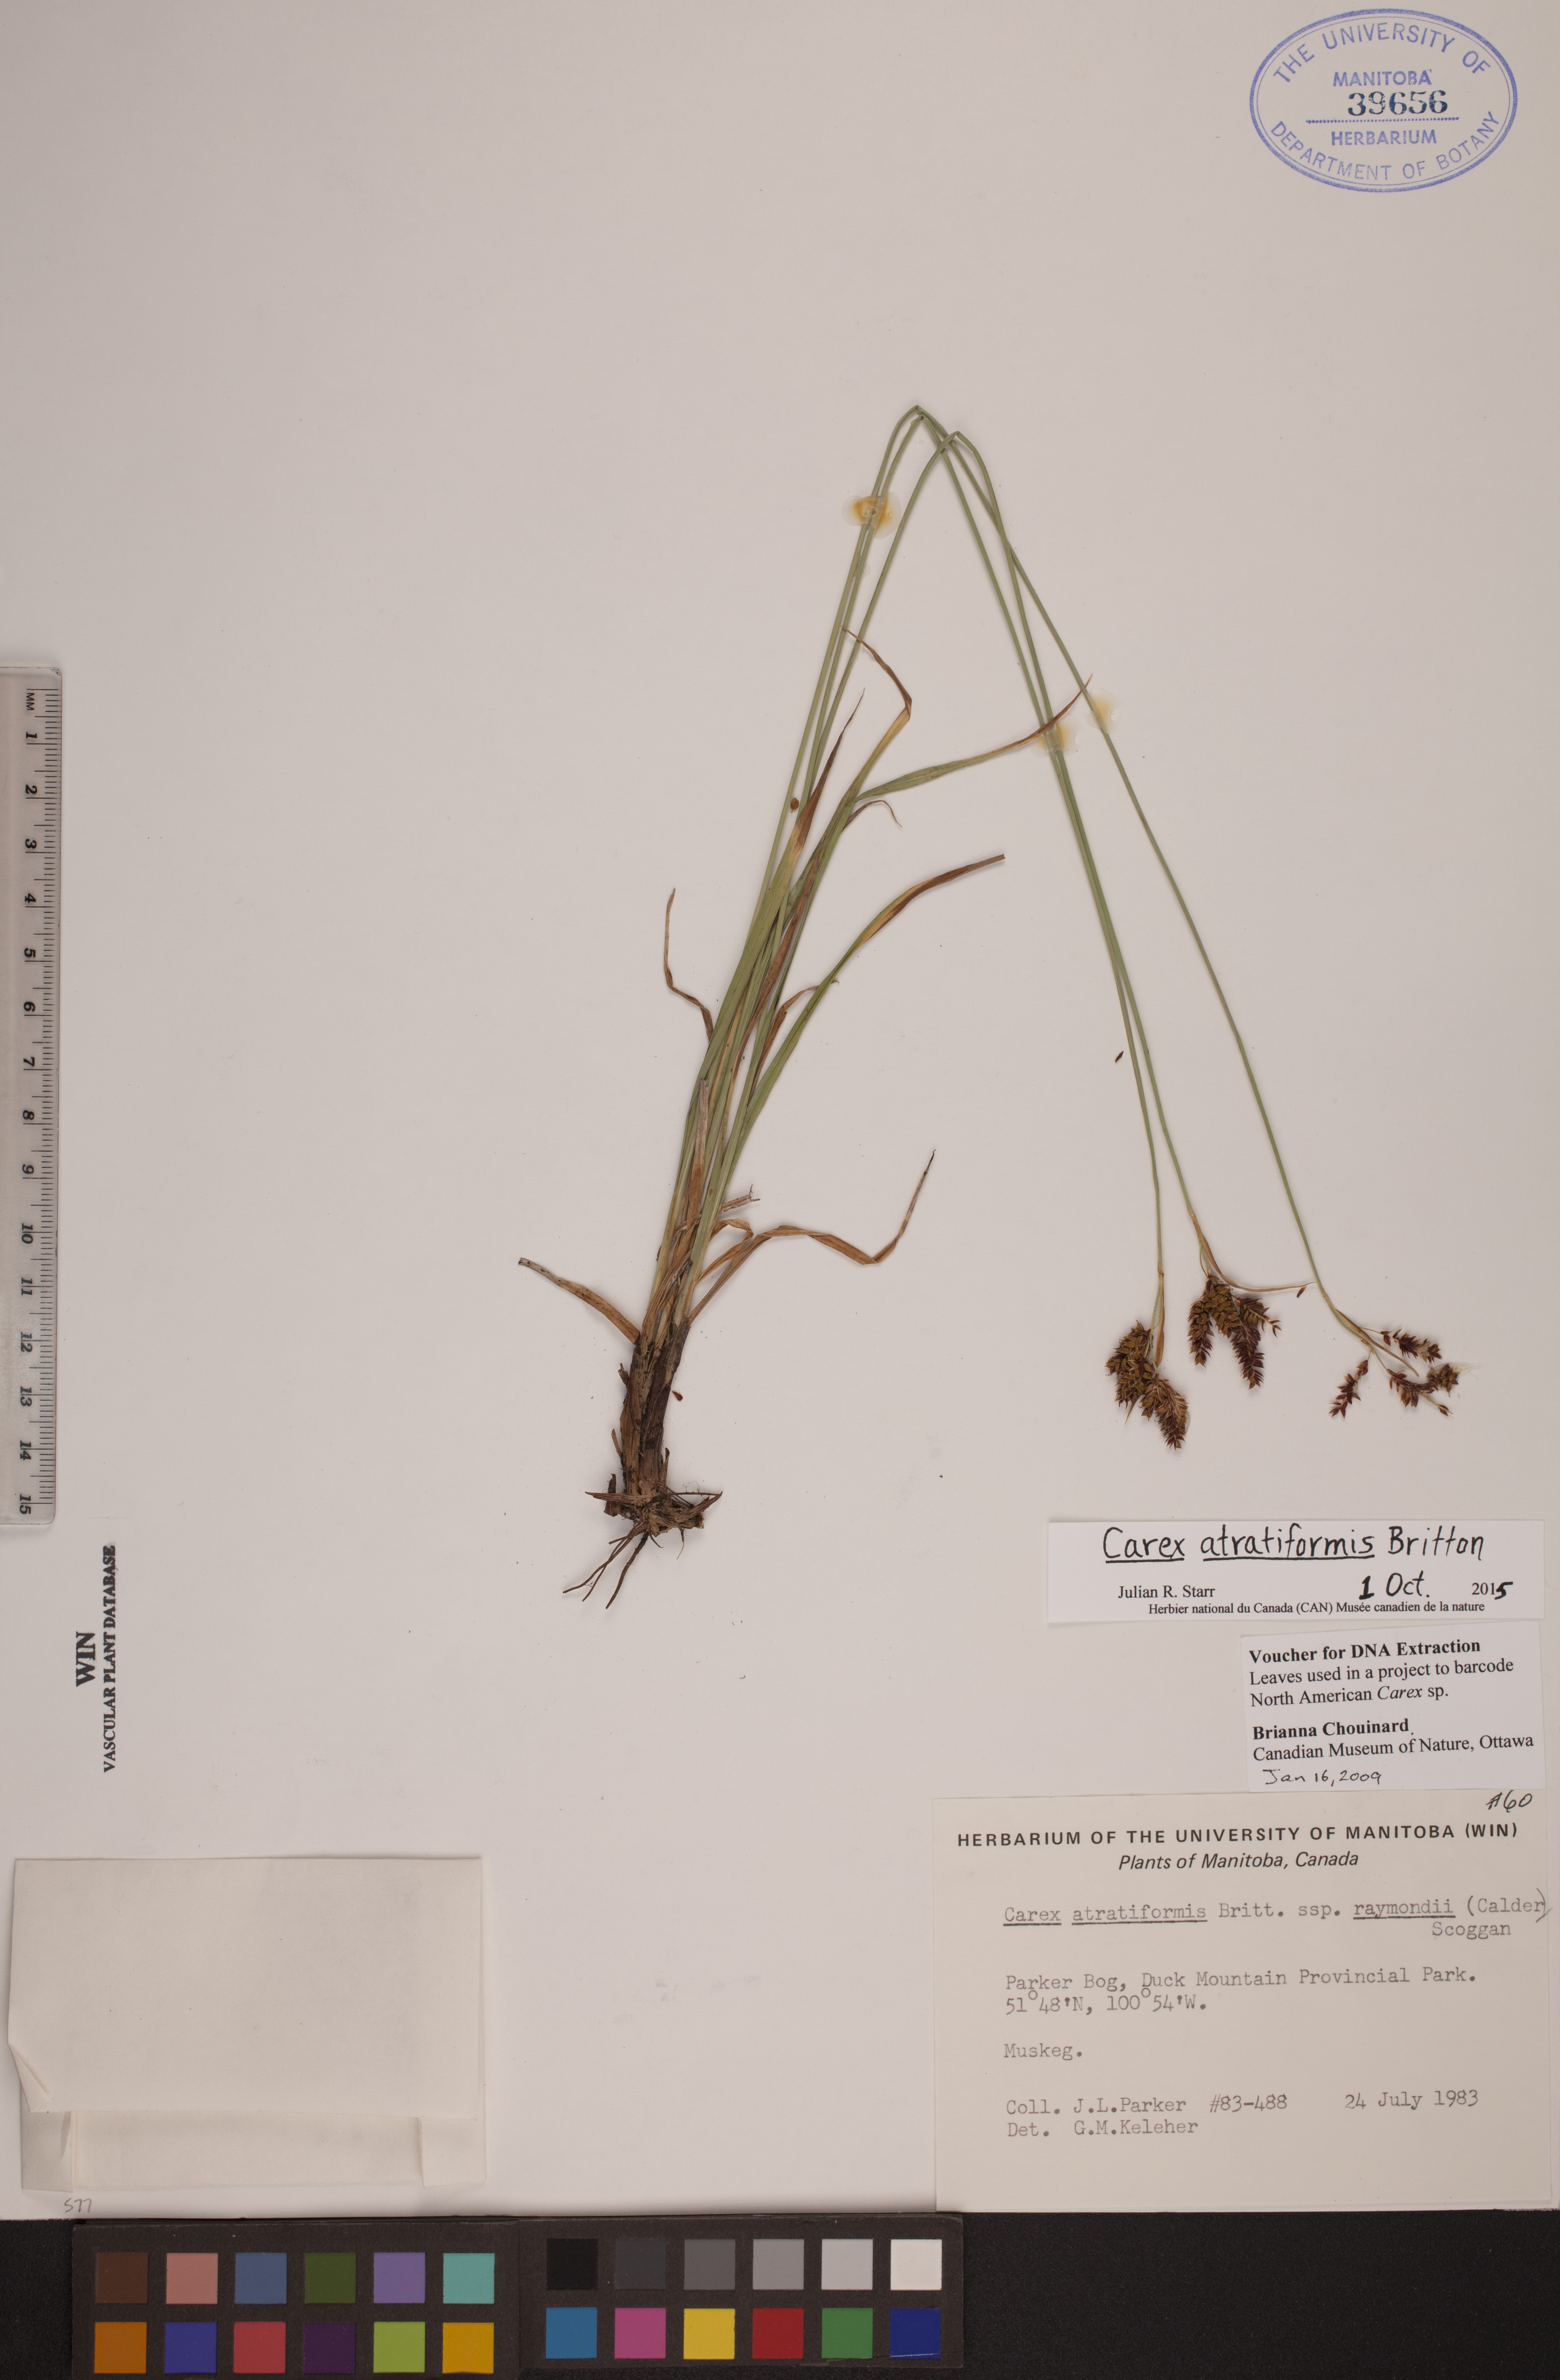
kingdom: Plantae
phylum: Tracheophyta
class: Liliopsida
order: Poales
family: Cyperaceae
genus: Carex
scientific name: Carex atratiformis
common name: Black sedge
